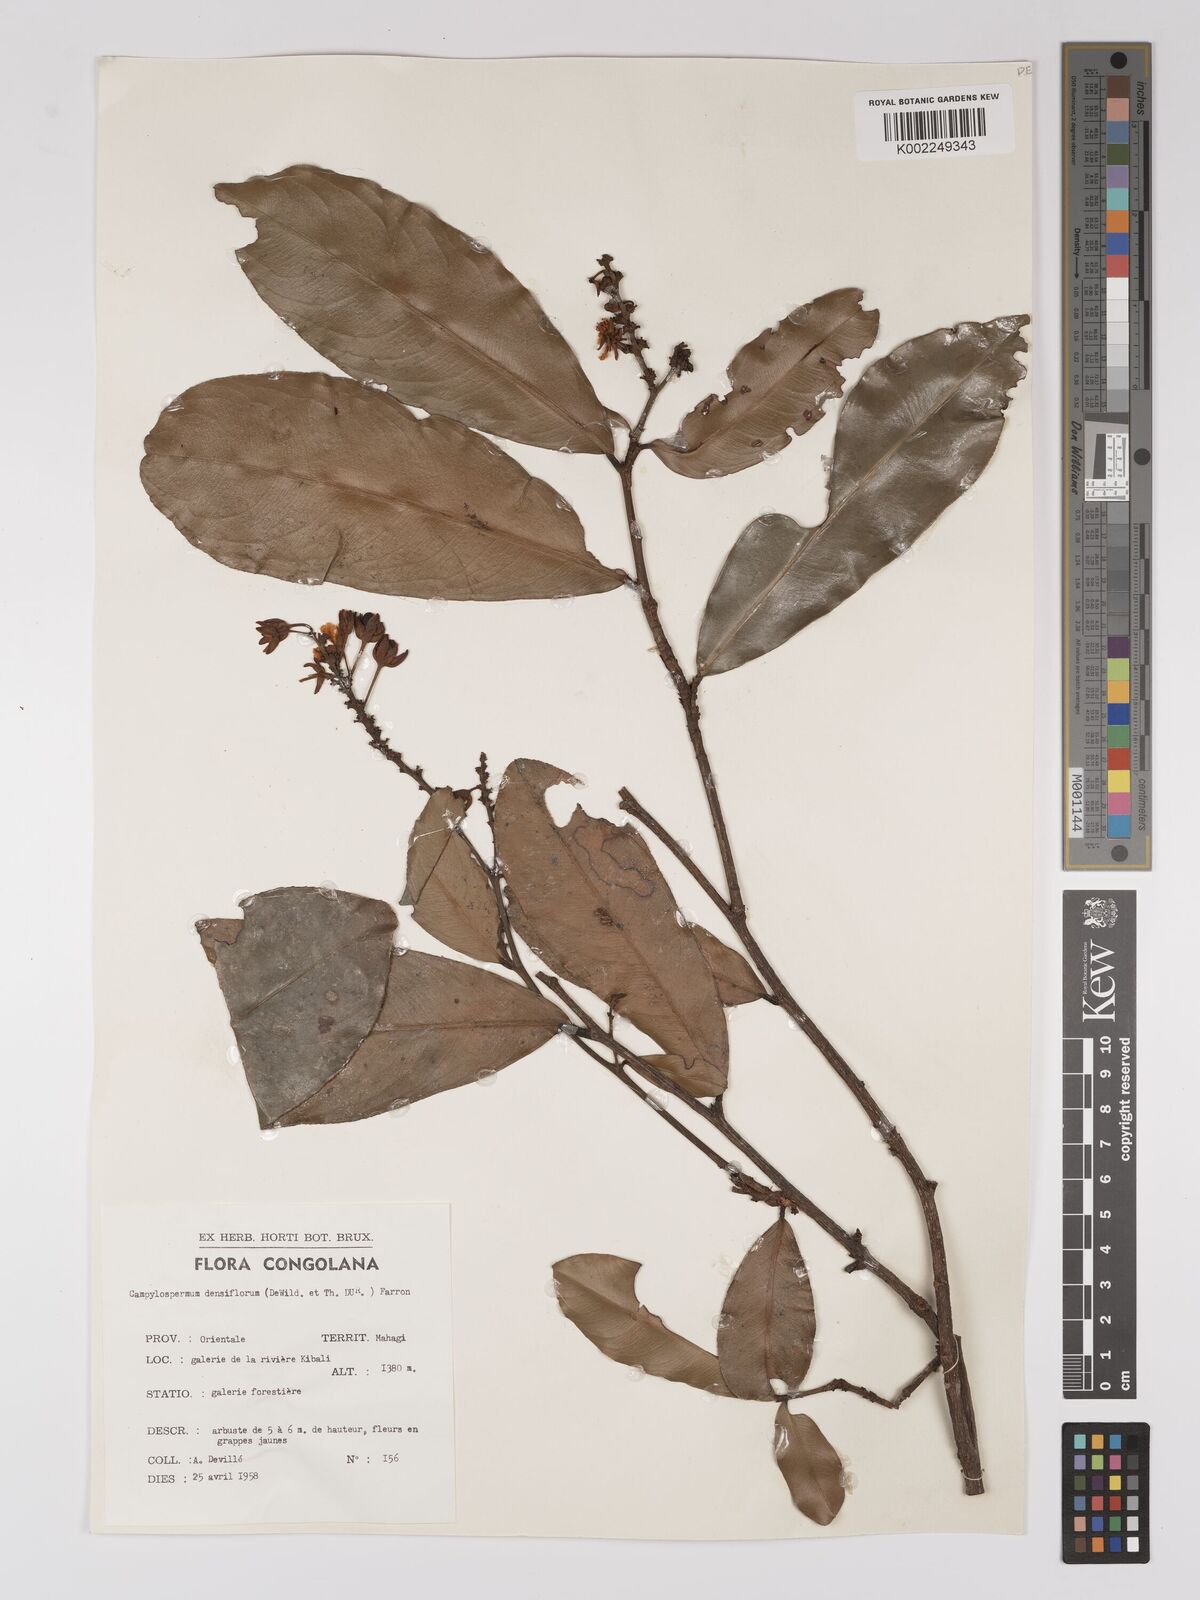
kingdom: Plantae
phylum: Tracheophyta
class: Magnoliopsida
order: Malpighiales
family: Ochnaceae
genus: Gomphia
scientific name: Gomphia densiflora
